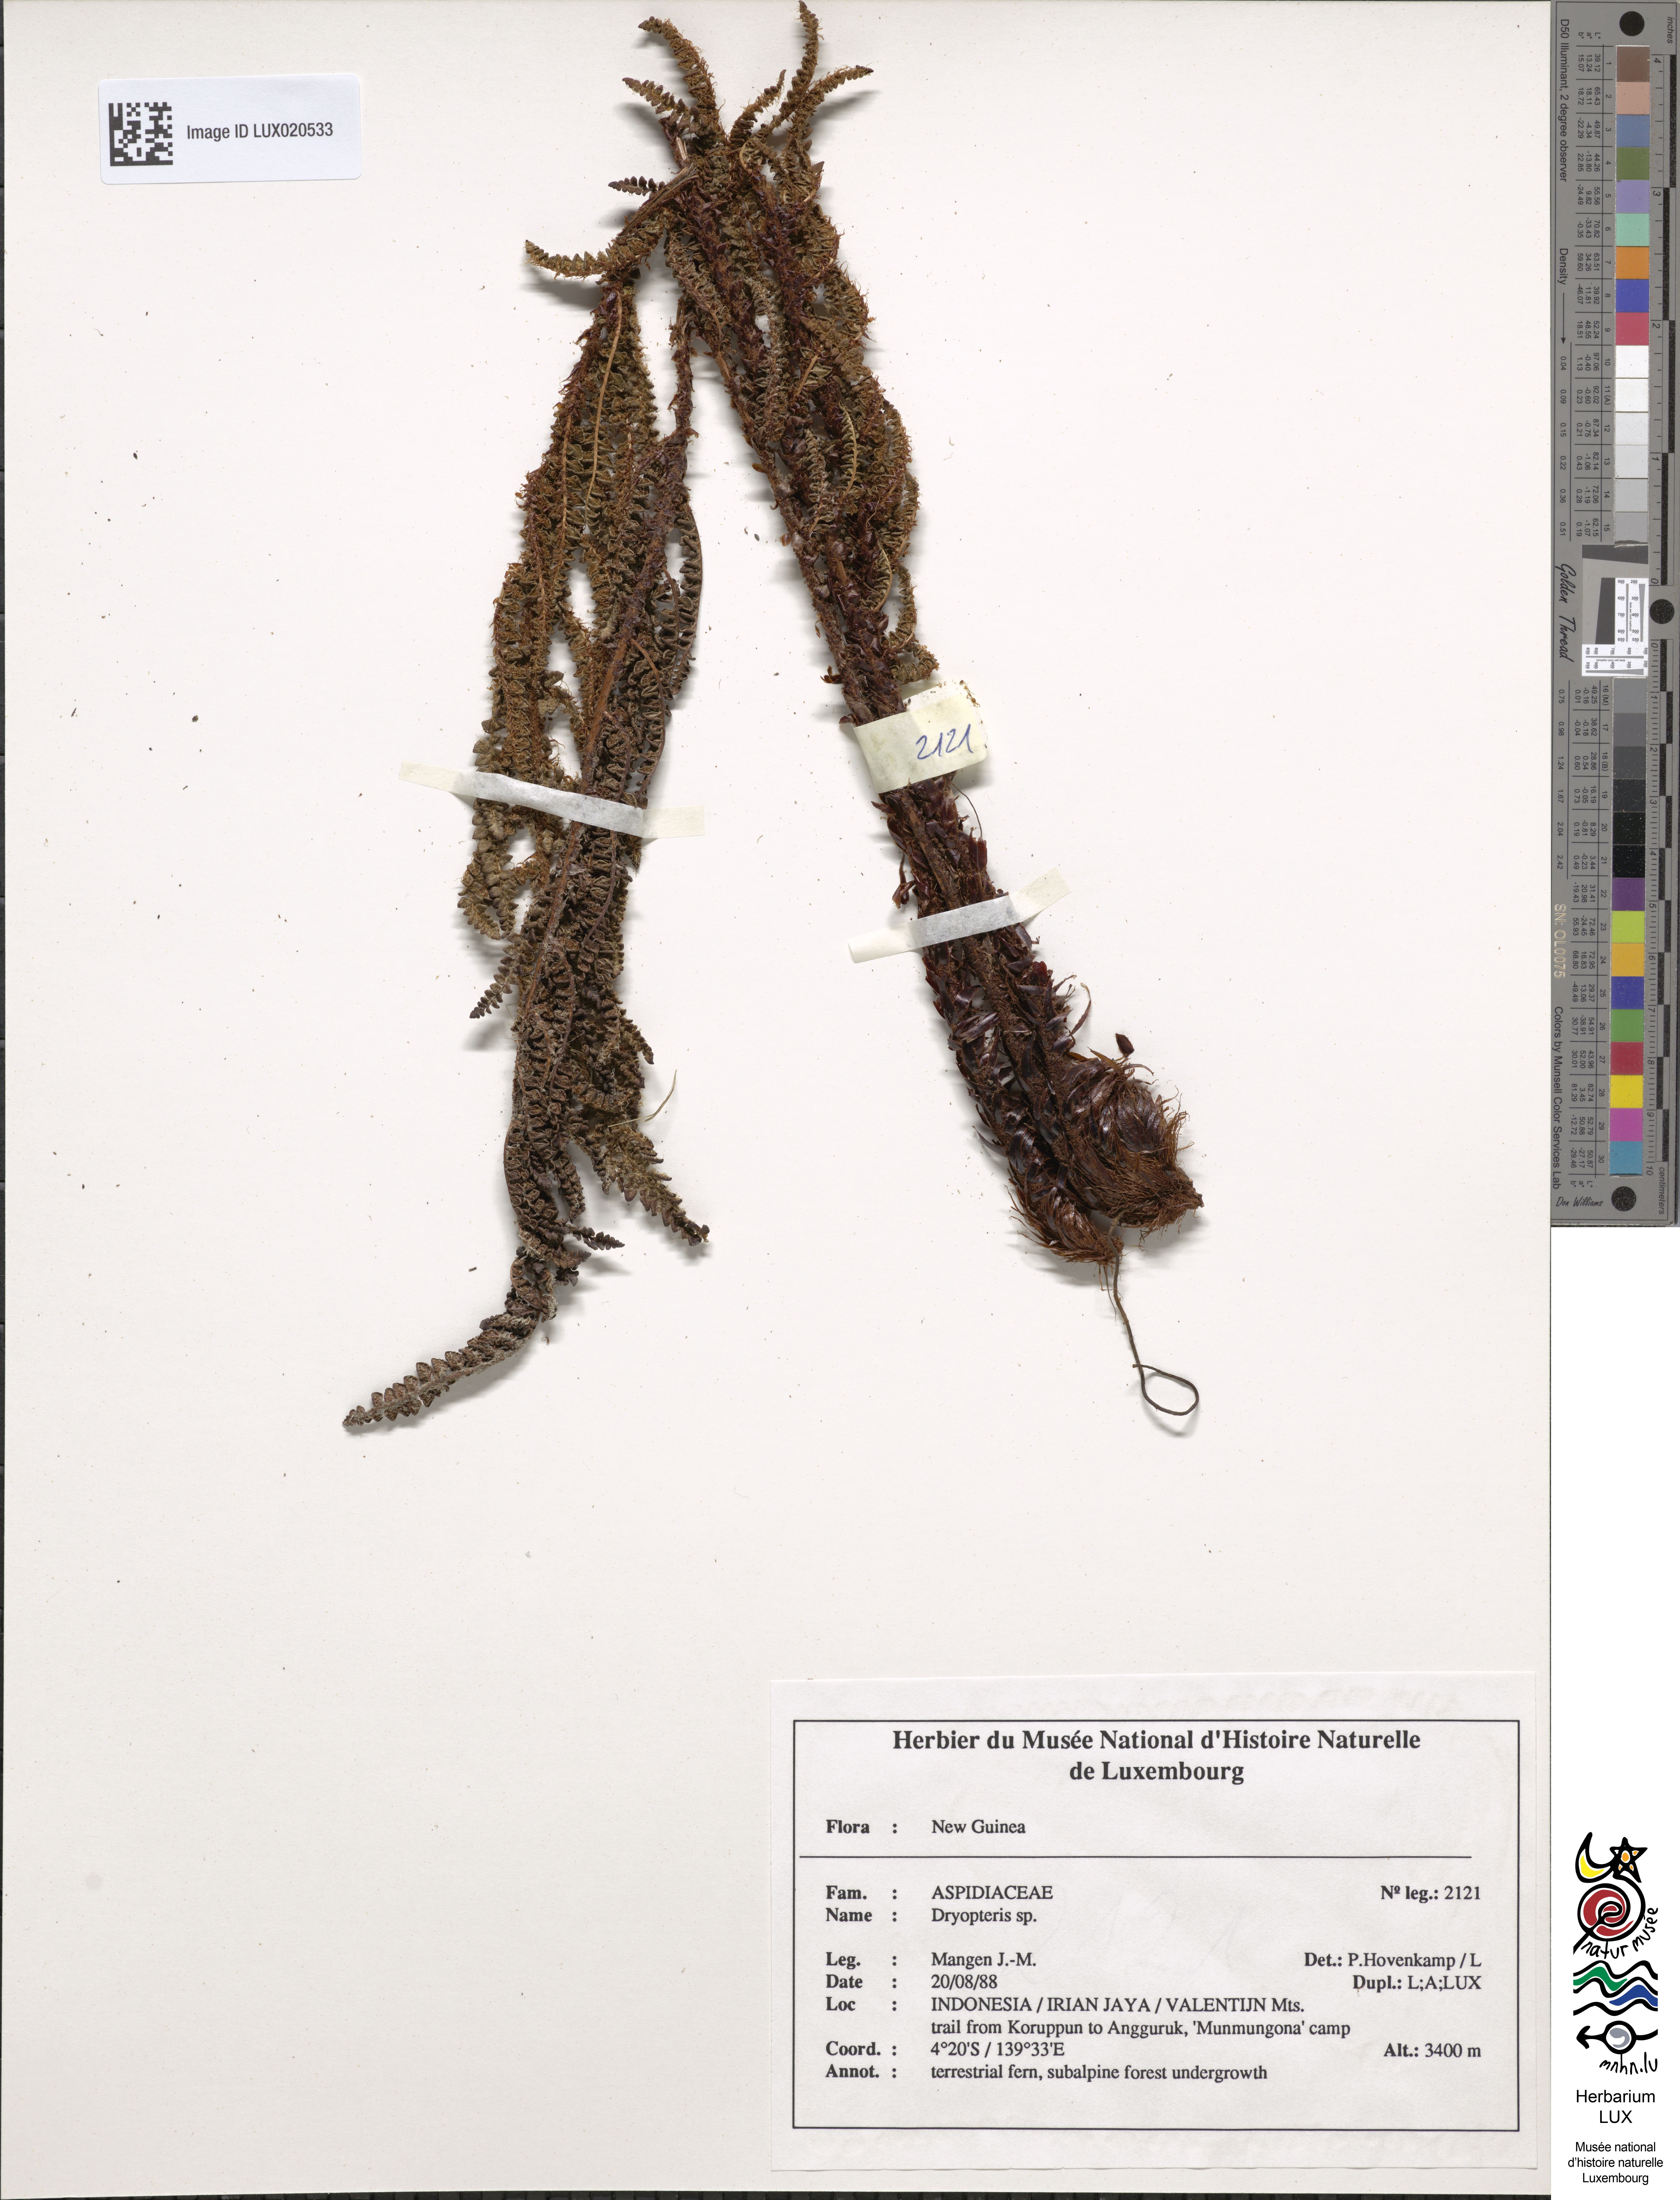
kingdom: Plantae
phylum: Tracheophyta
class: Polypodiopsida
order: Polypodiales
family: Dryopteridaceae
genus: Dryopteris
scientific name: Dryopteris
